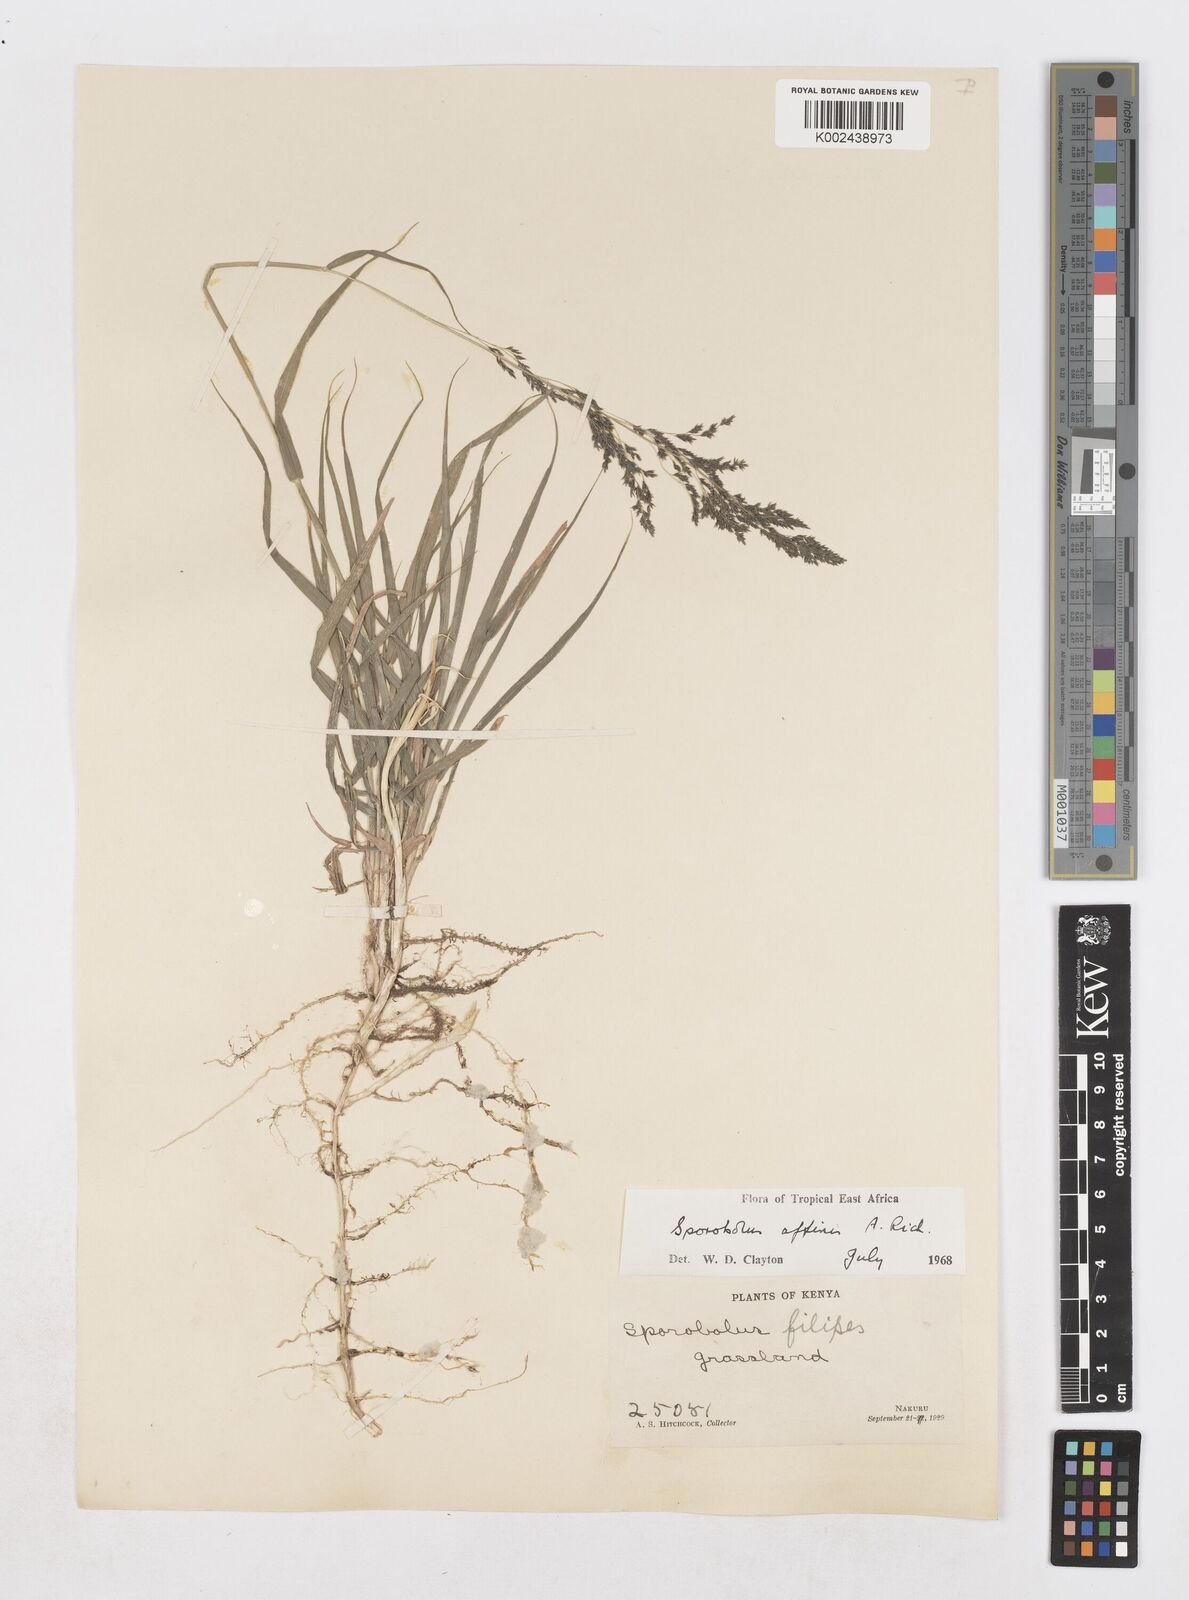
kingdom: Plantae
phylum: Tracheophyta
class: Liliopsida
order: Poales
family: Poaceae
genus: Sporobolus
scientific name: Sporobolus confinis
